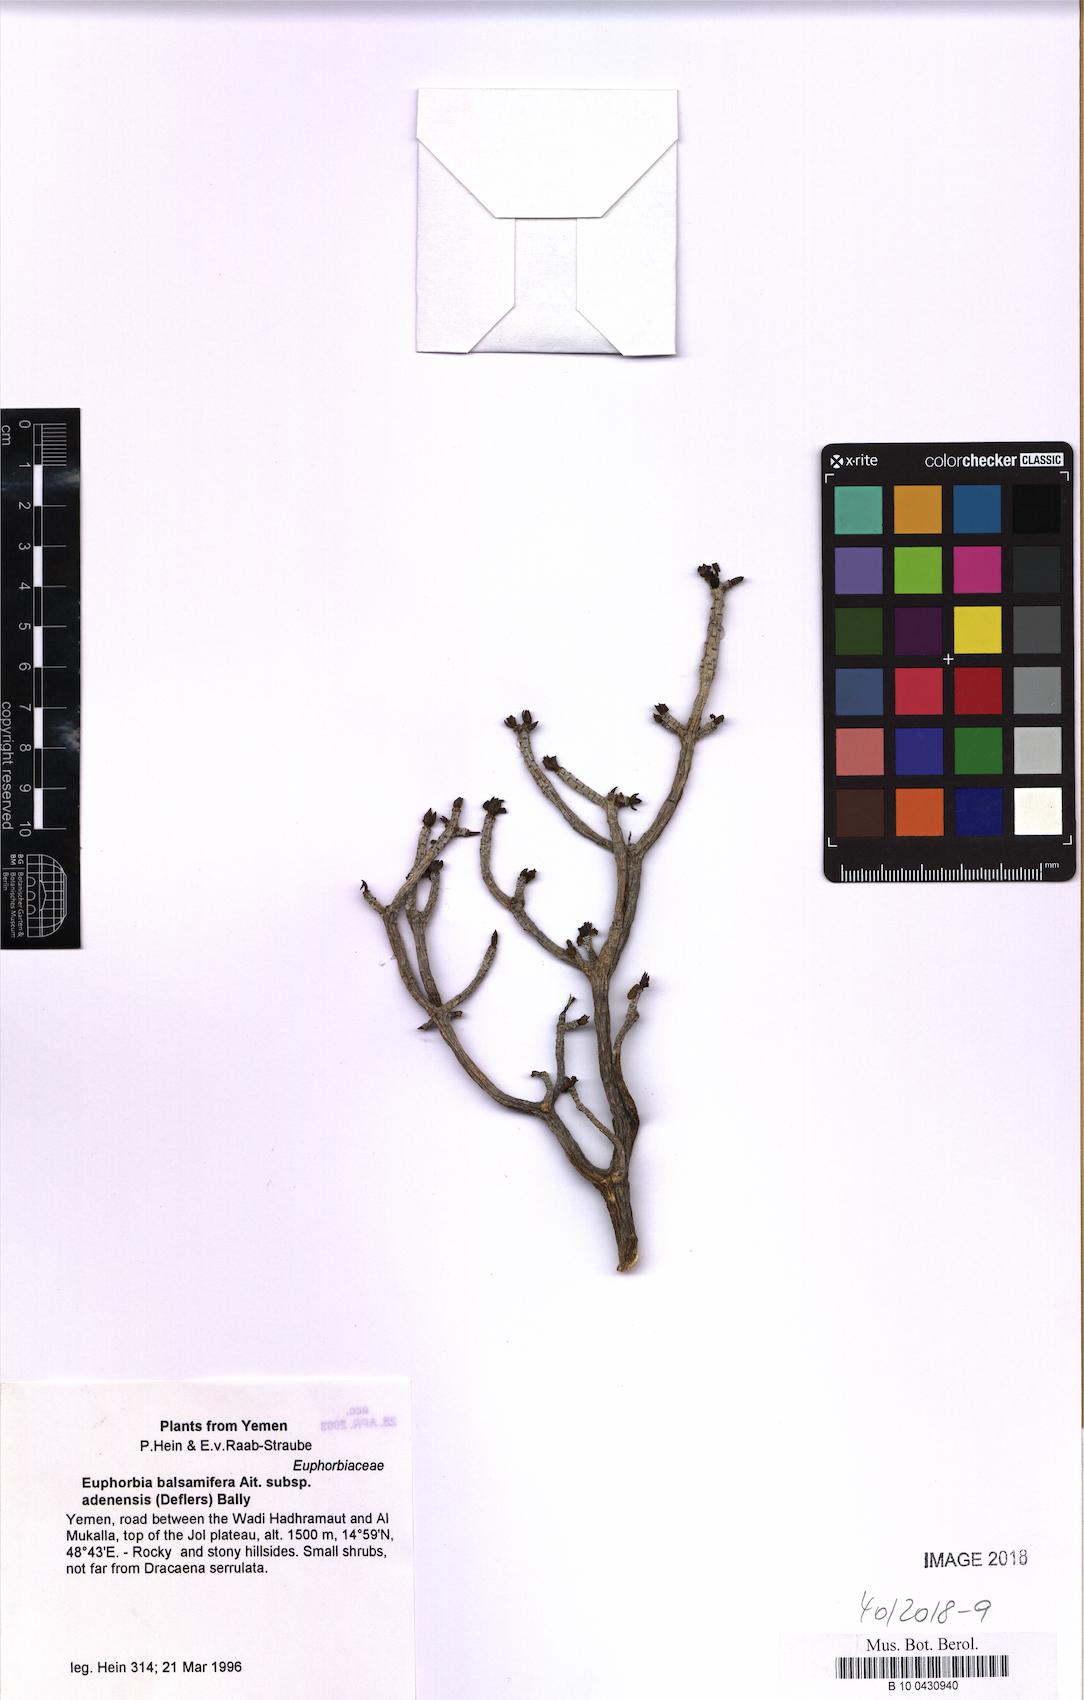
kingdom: Plantae
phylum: Tracheophyta
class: Magnoliopsida
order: Malpighiales
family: Euphorbiaceae
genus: Euphorbia
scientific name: Euphorbia adenensis
